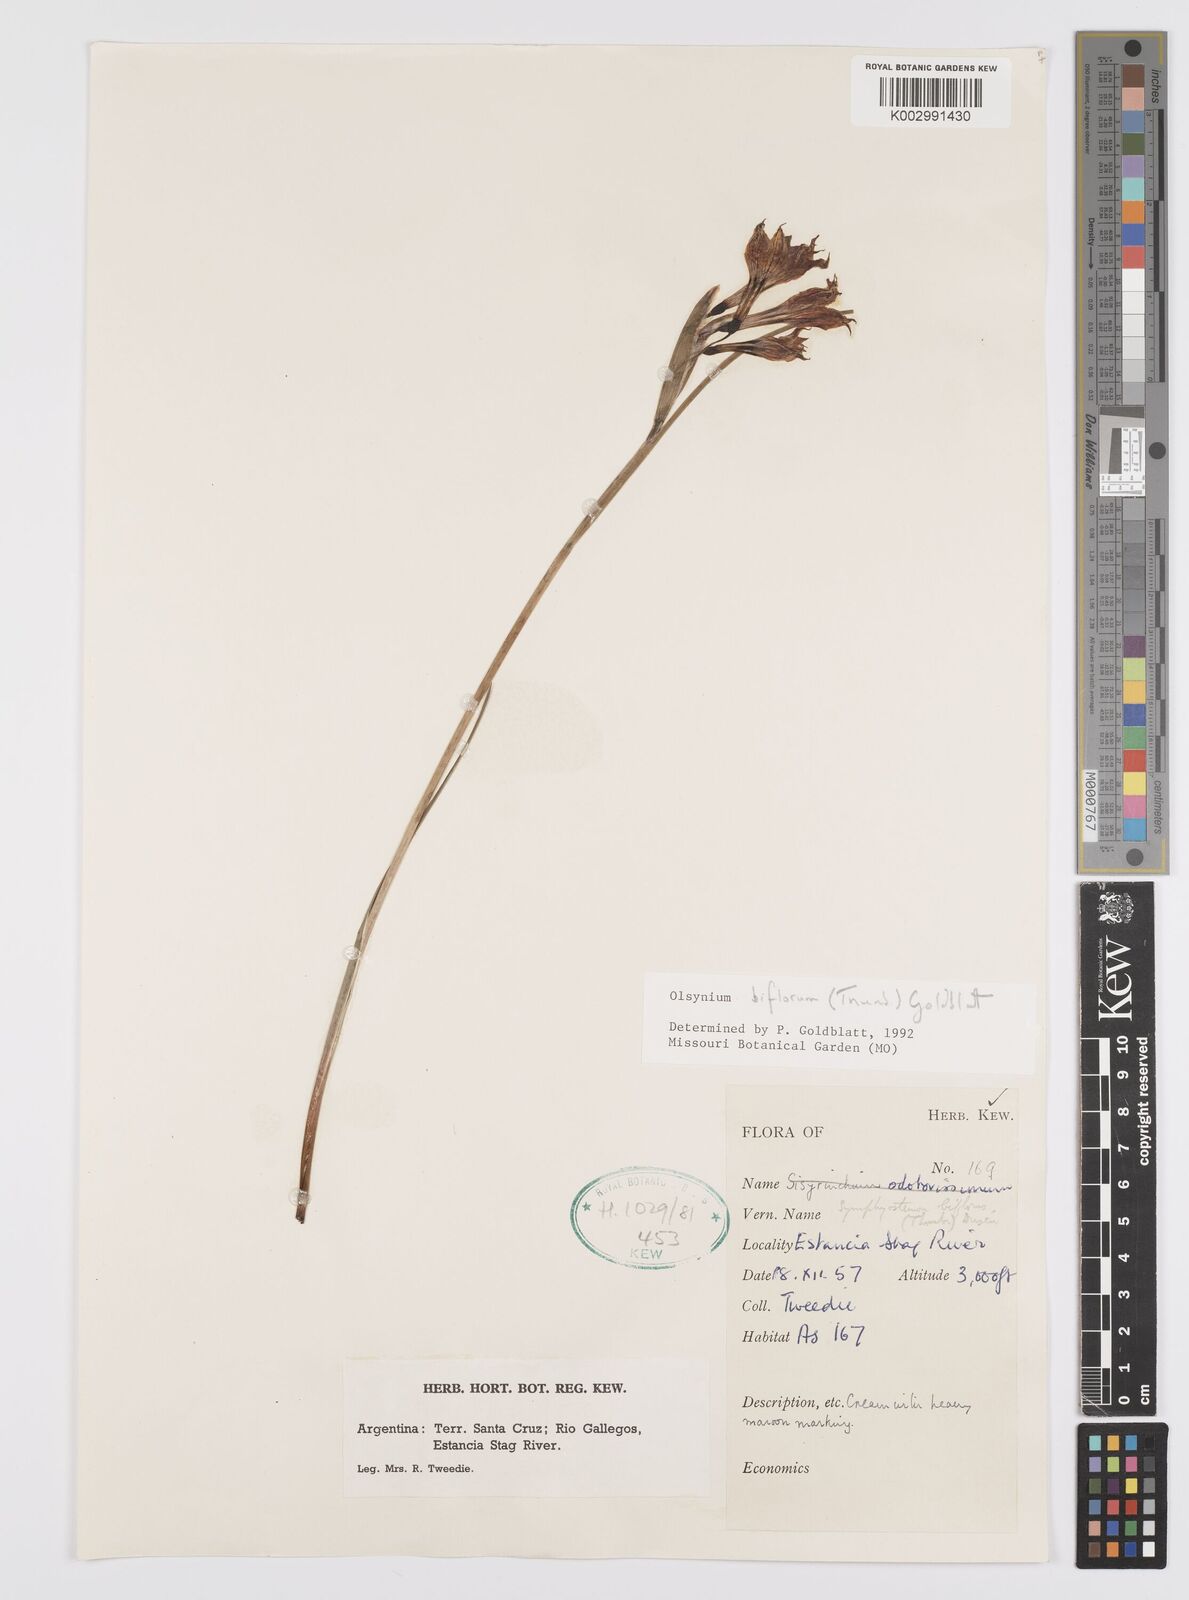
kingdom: Plantae
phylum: Tracheophyta
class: Liliopsida
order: Asparagales
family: Iridaceae
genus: Olsynium
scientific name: Olsynium biflorum
